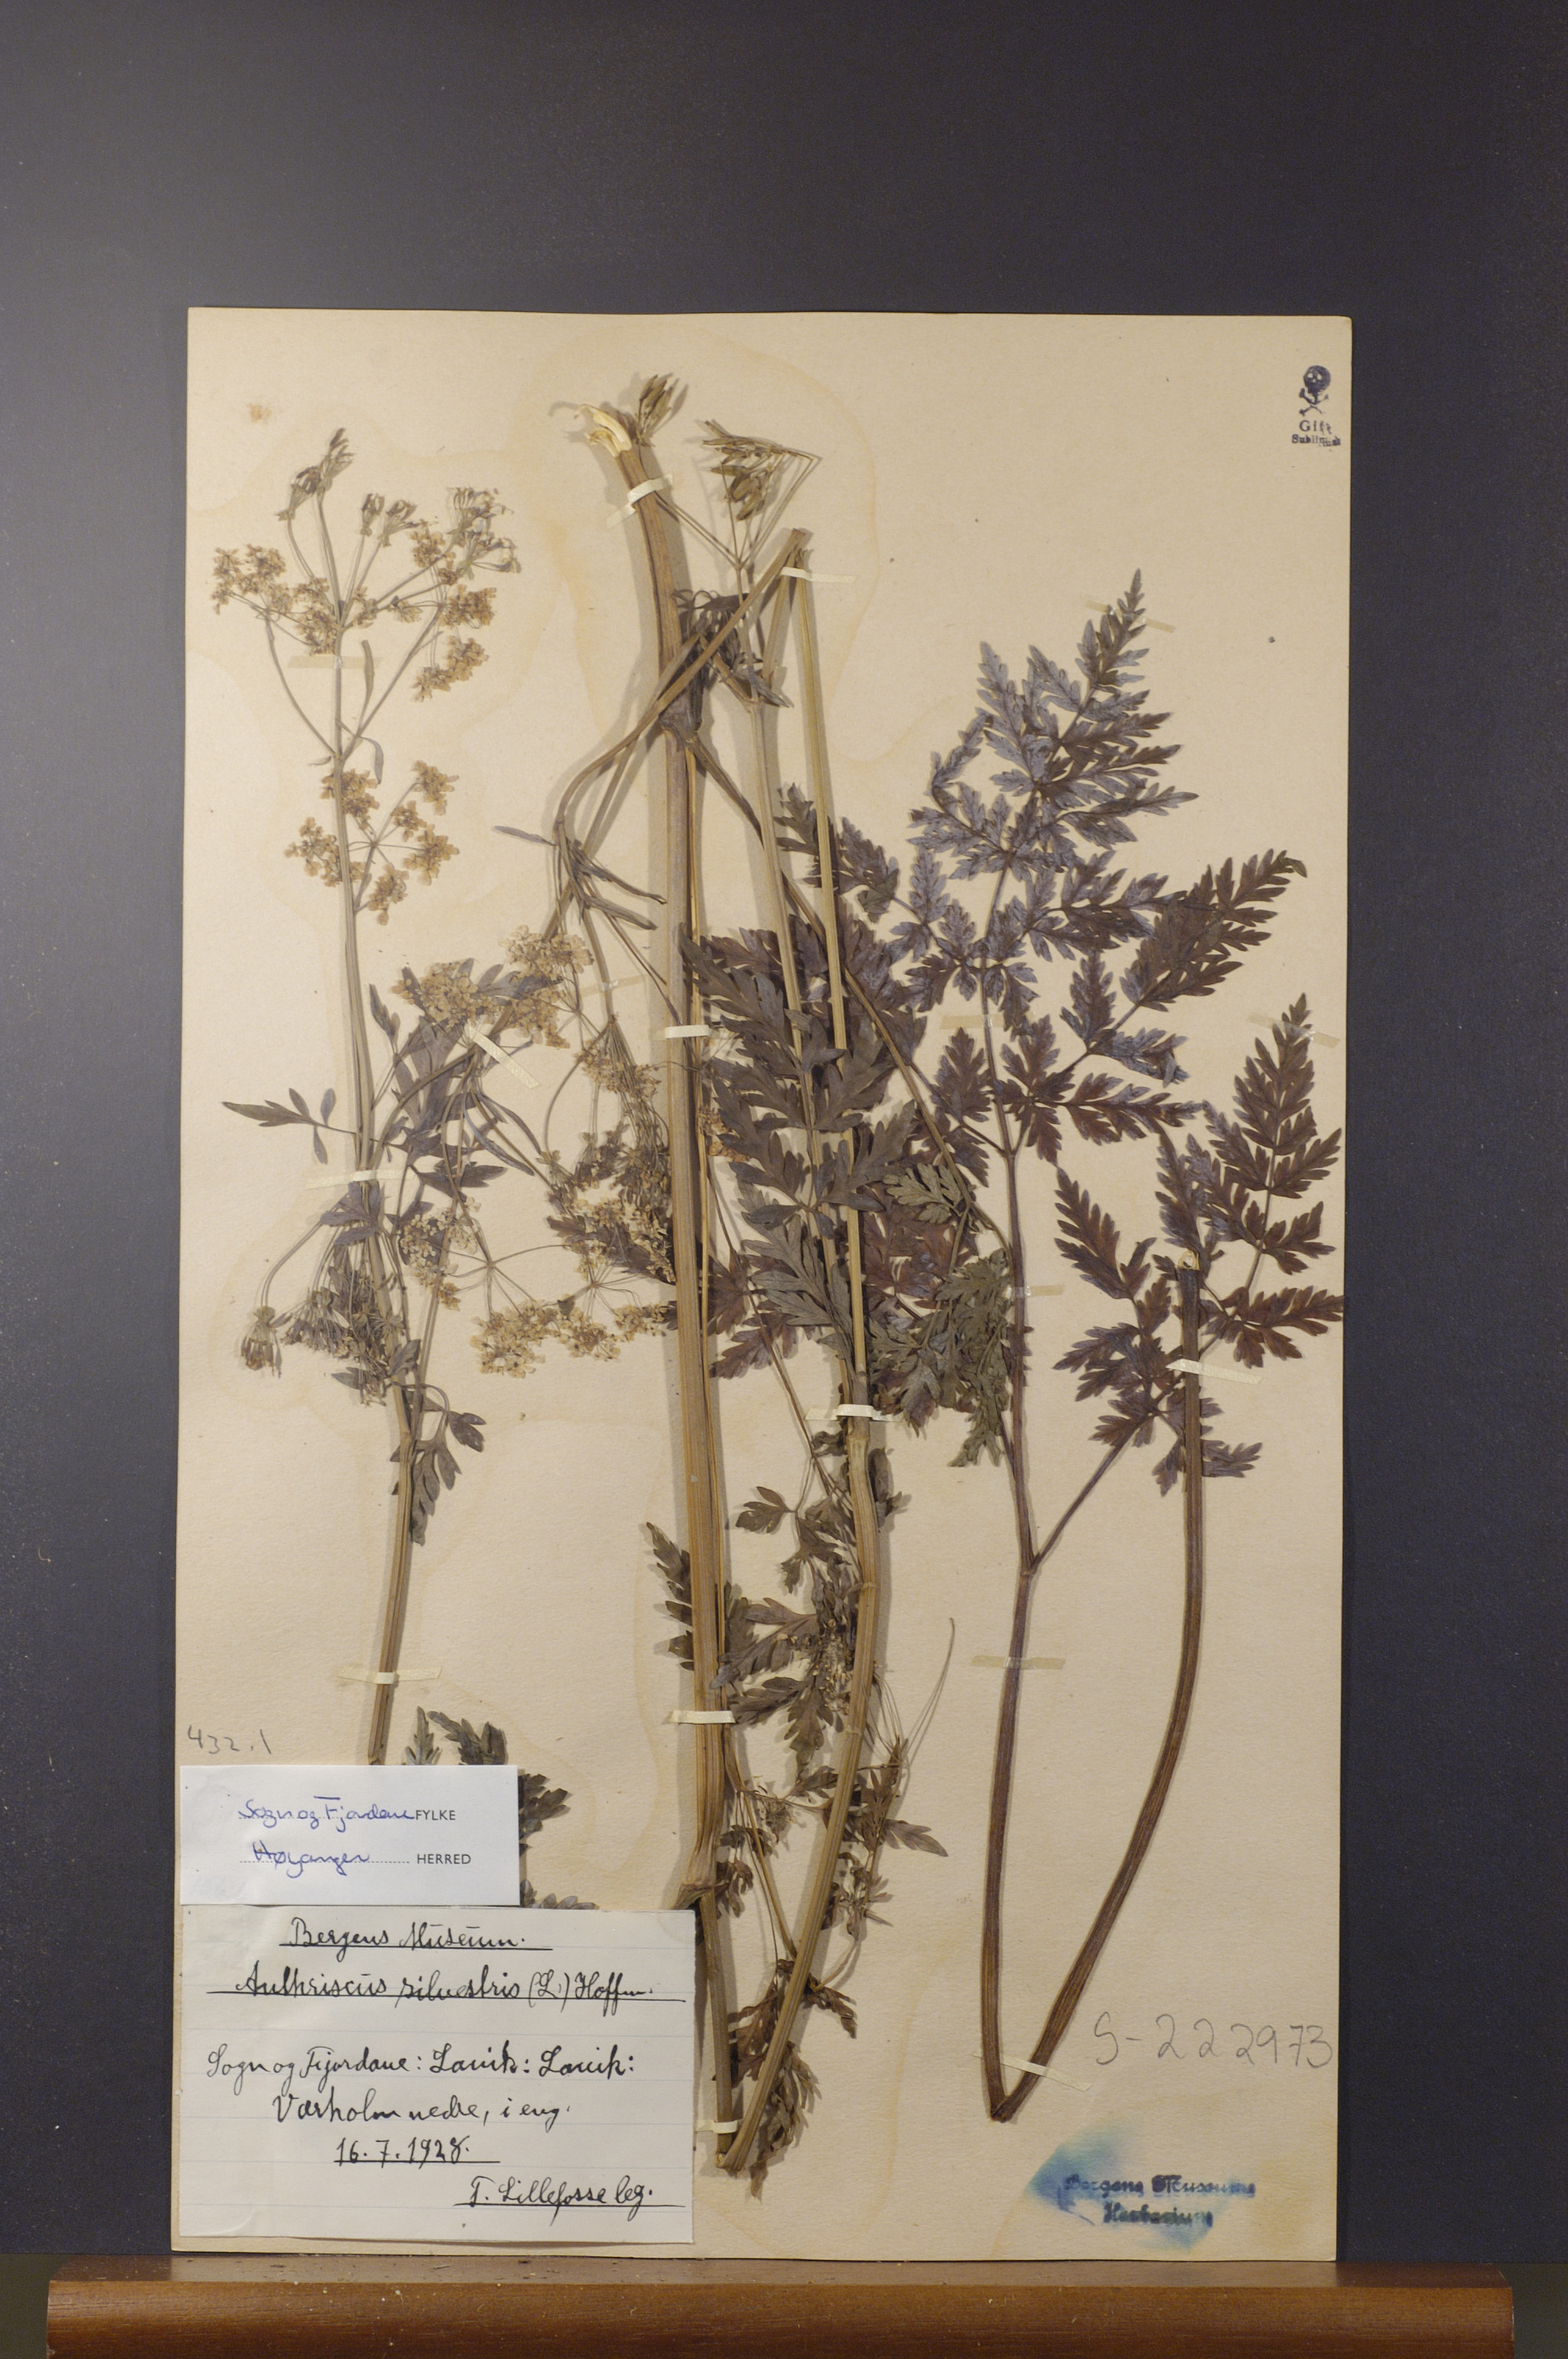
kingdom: Plantae
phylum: Tracheophyta
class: Magnoliopsida
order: Apiales
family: Apiaceae
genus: Anthriscus
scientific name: Anthriscus sylvestris
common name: Cow parsley
